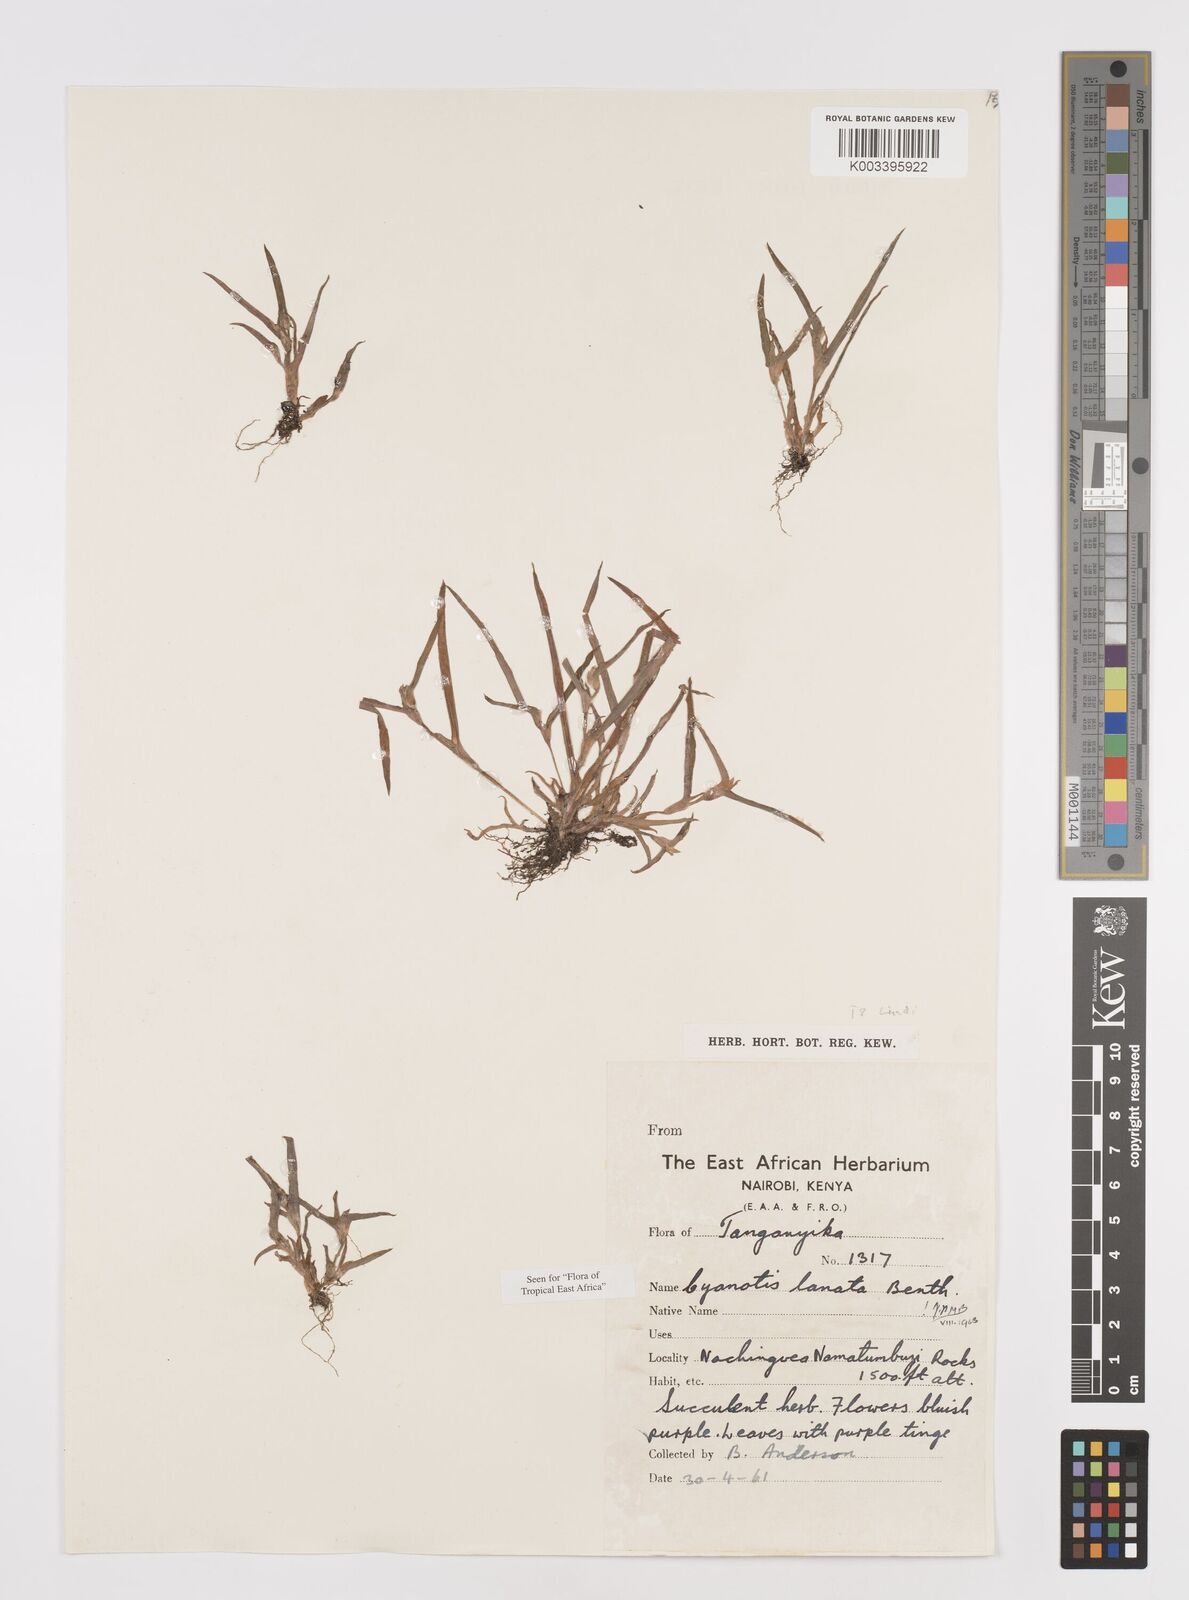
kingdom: Plantae
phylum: Tracheophyta
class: Liliopsida
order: Commelinales
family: Commelinaceae
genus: Cyanotis
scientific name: Cyanotis lanata
